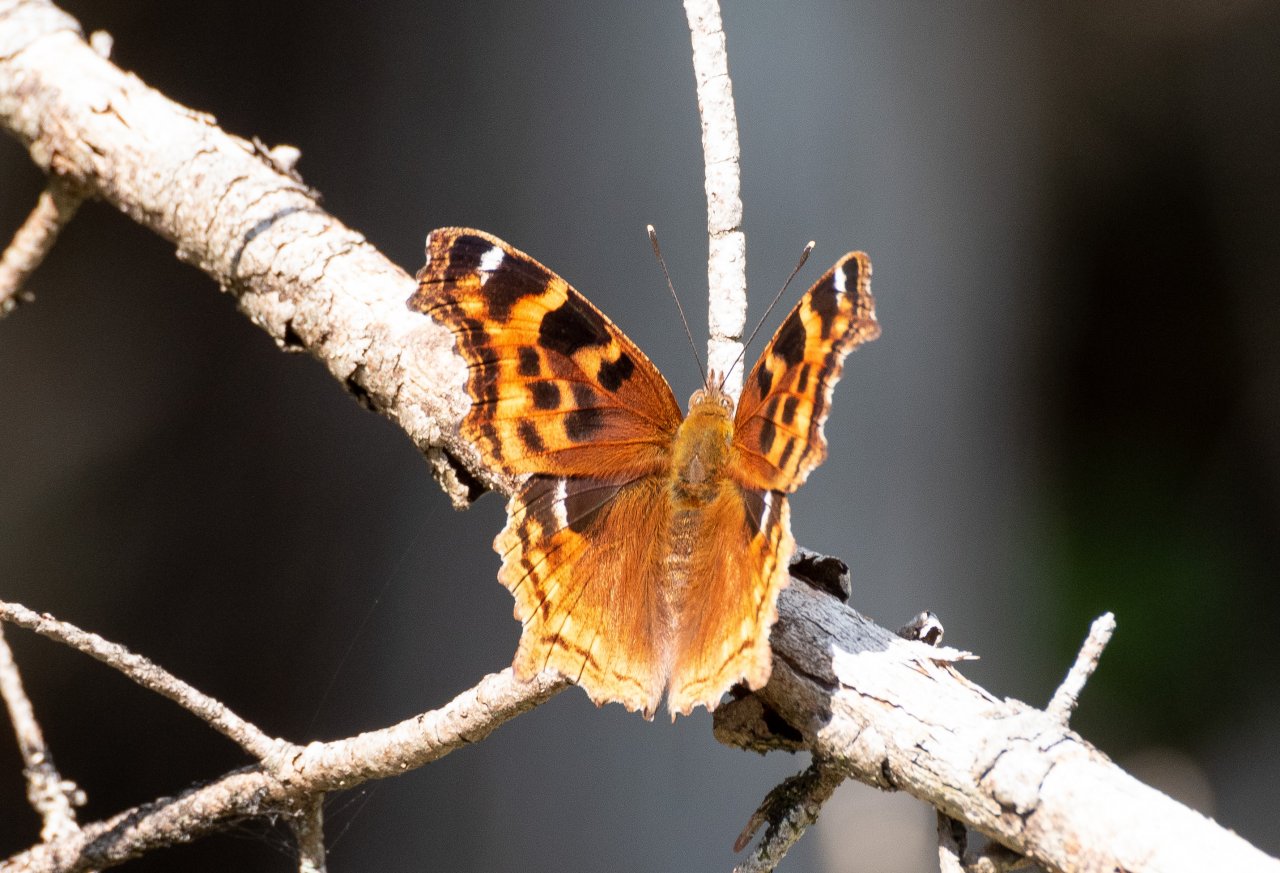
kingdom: Animalia
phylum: Arthropoda
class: Insecta
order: Lepidoptera
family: Nymphalidae
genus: Polygonia
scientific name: Polygonia vaualbum
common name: Compton Tortoiseshell
